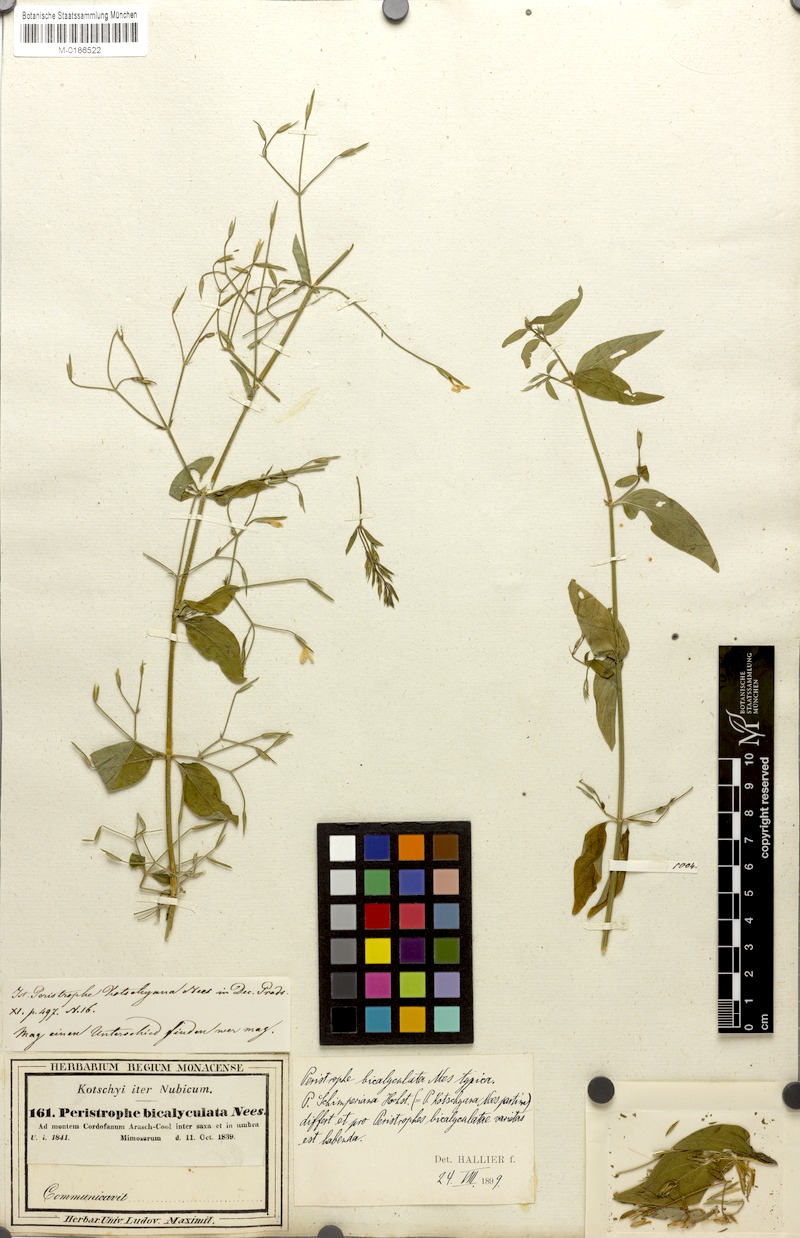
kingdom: Plantae
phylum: Tracheophyta
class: Magnoliopsida
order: Lamiales
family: Acanthaceae
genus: Dicliptera
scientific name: Dicliptera paniculata
